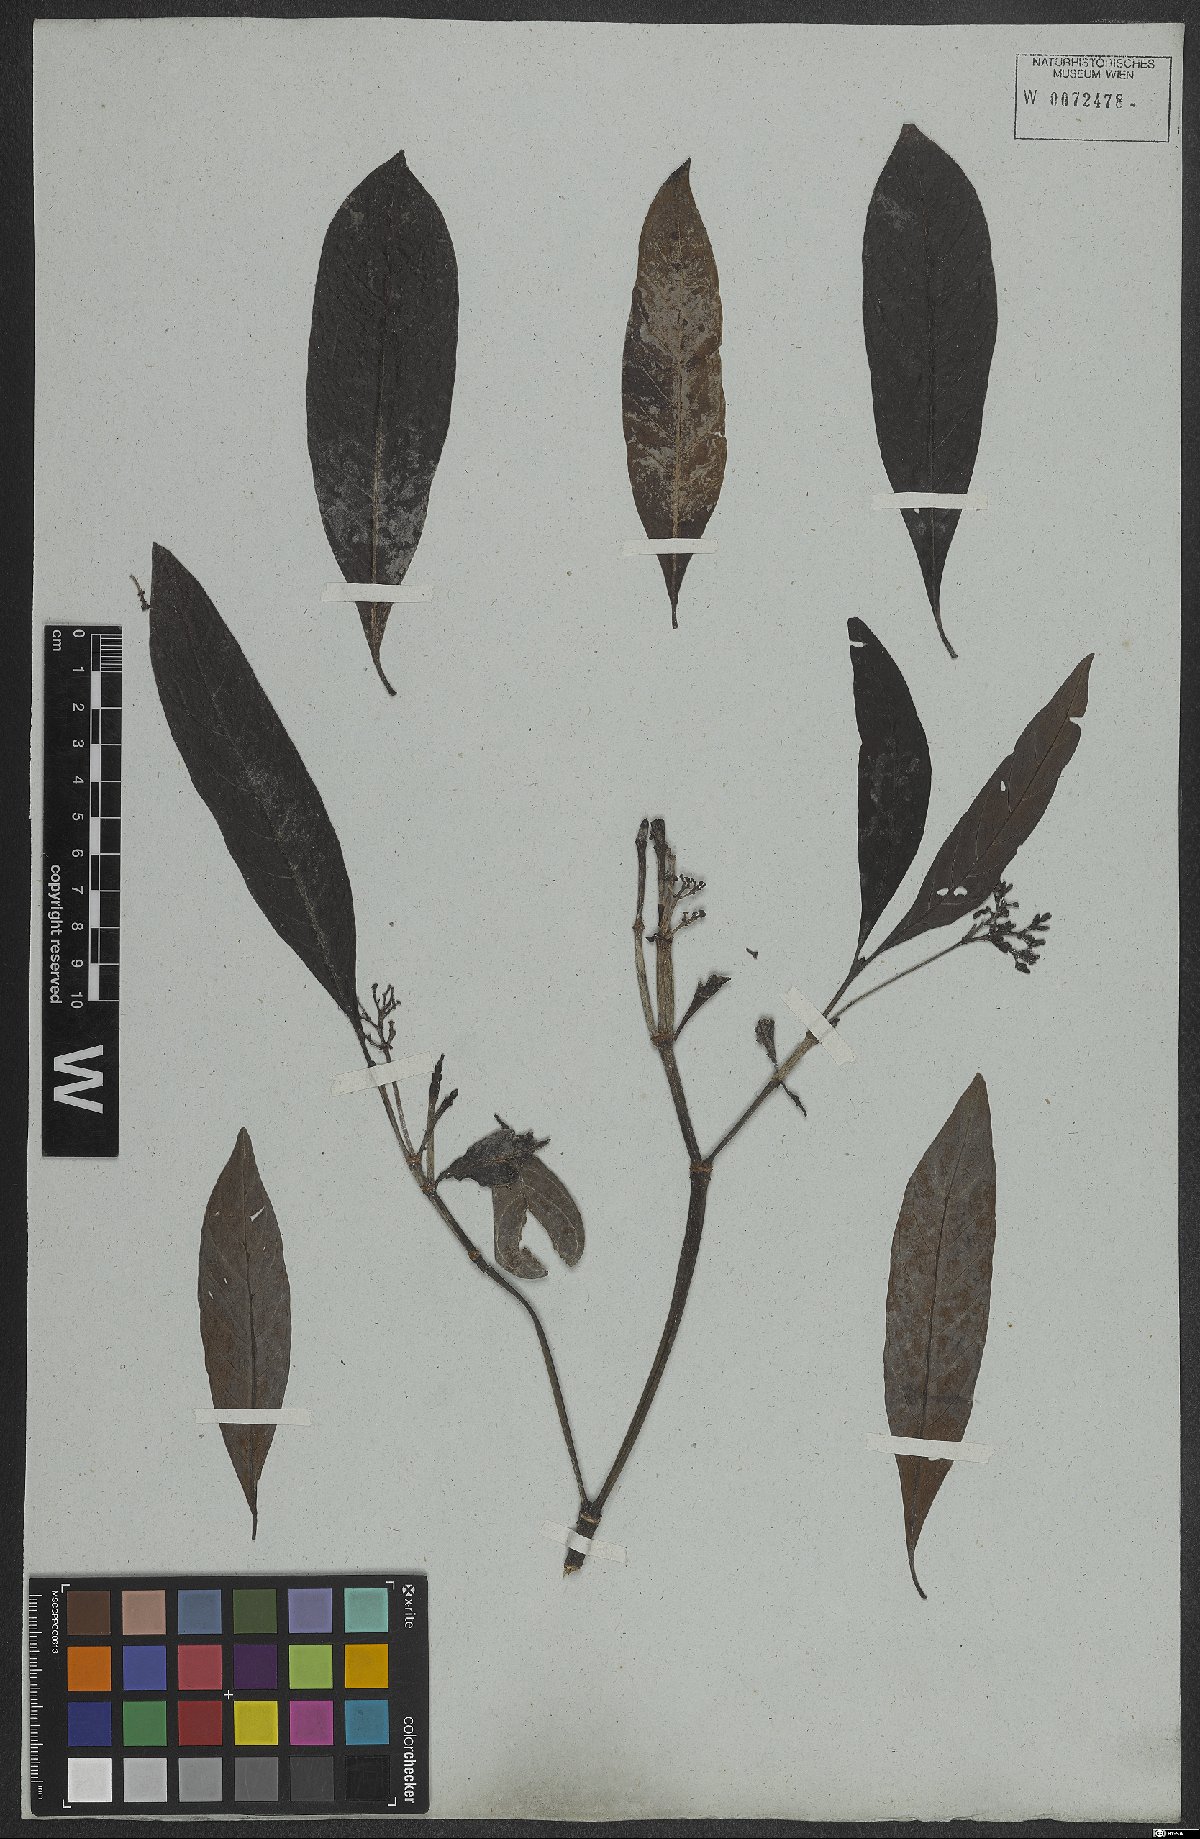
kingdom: Plantae
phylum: Tracheophyta
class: Magnoliopsida
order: Gentianales
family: Rubiaceae
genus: Psychotria
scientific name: Psychotria
